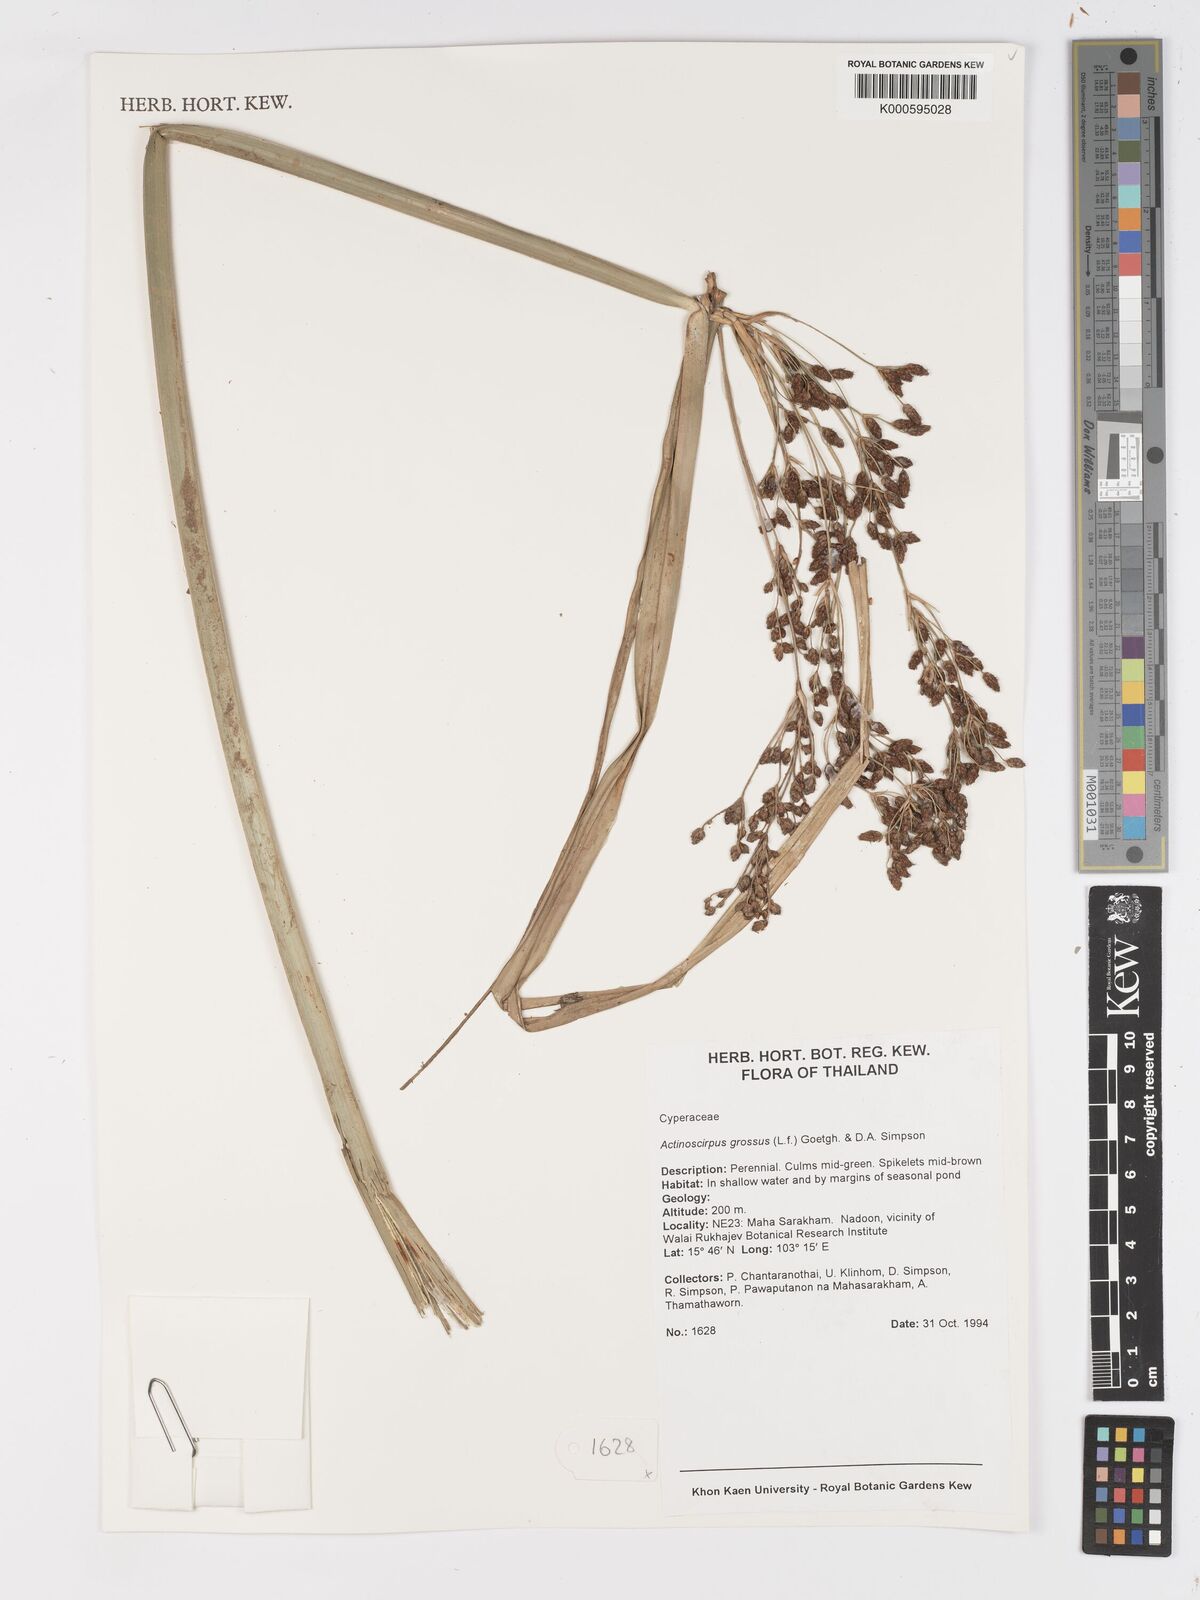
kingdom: Plantae
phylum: Tracheophyta
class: Liliopsida
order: Poales
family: Cyperaceae
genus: Actinoscirpus
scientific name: Actinoscirpus grossus
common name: Giant bur rush
